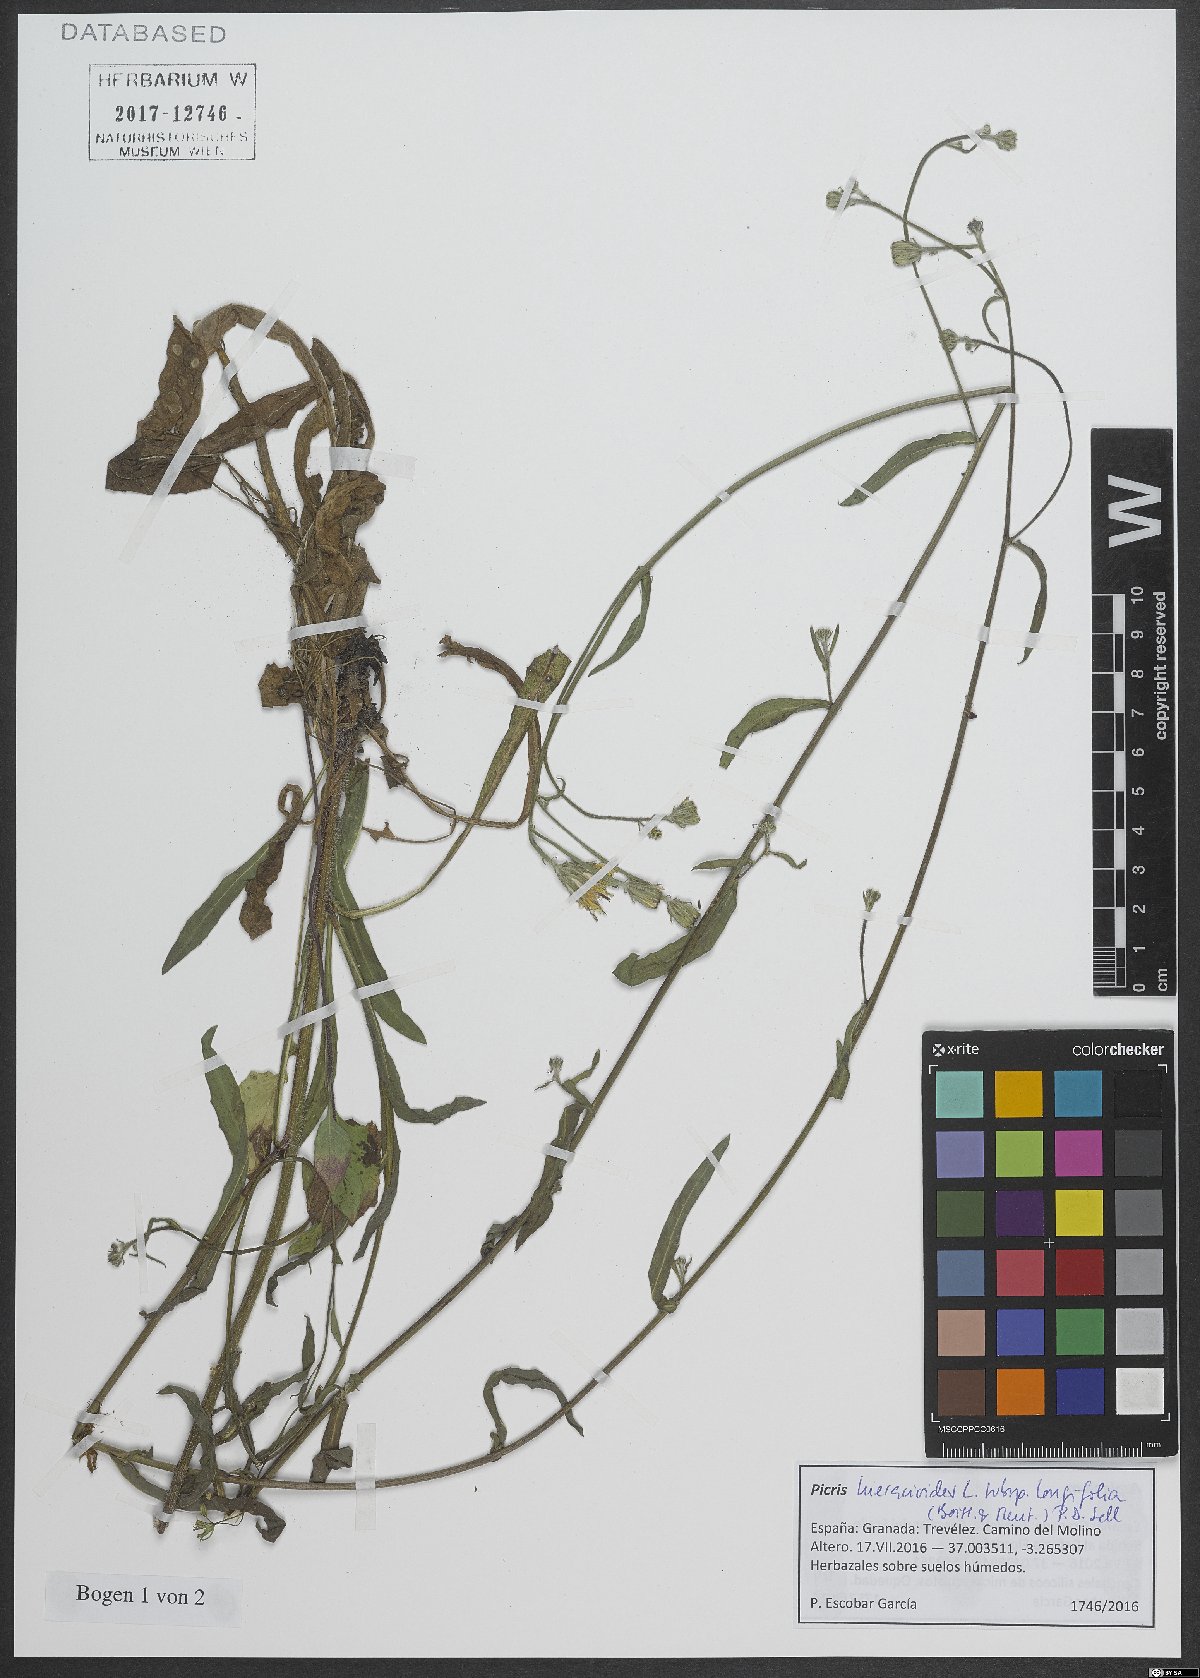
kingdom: Plantae
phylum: Tracheophyta
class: Magnoliopsida
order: Asterales
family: Asteraceae
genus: Picris
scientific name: Picris hieracioides
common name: Hawkweed oxtongue
